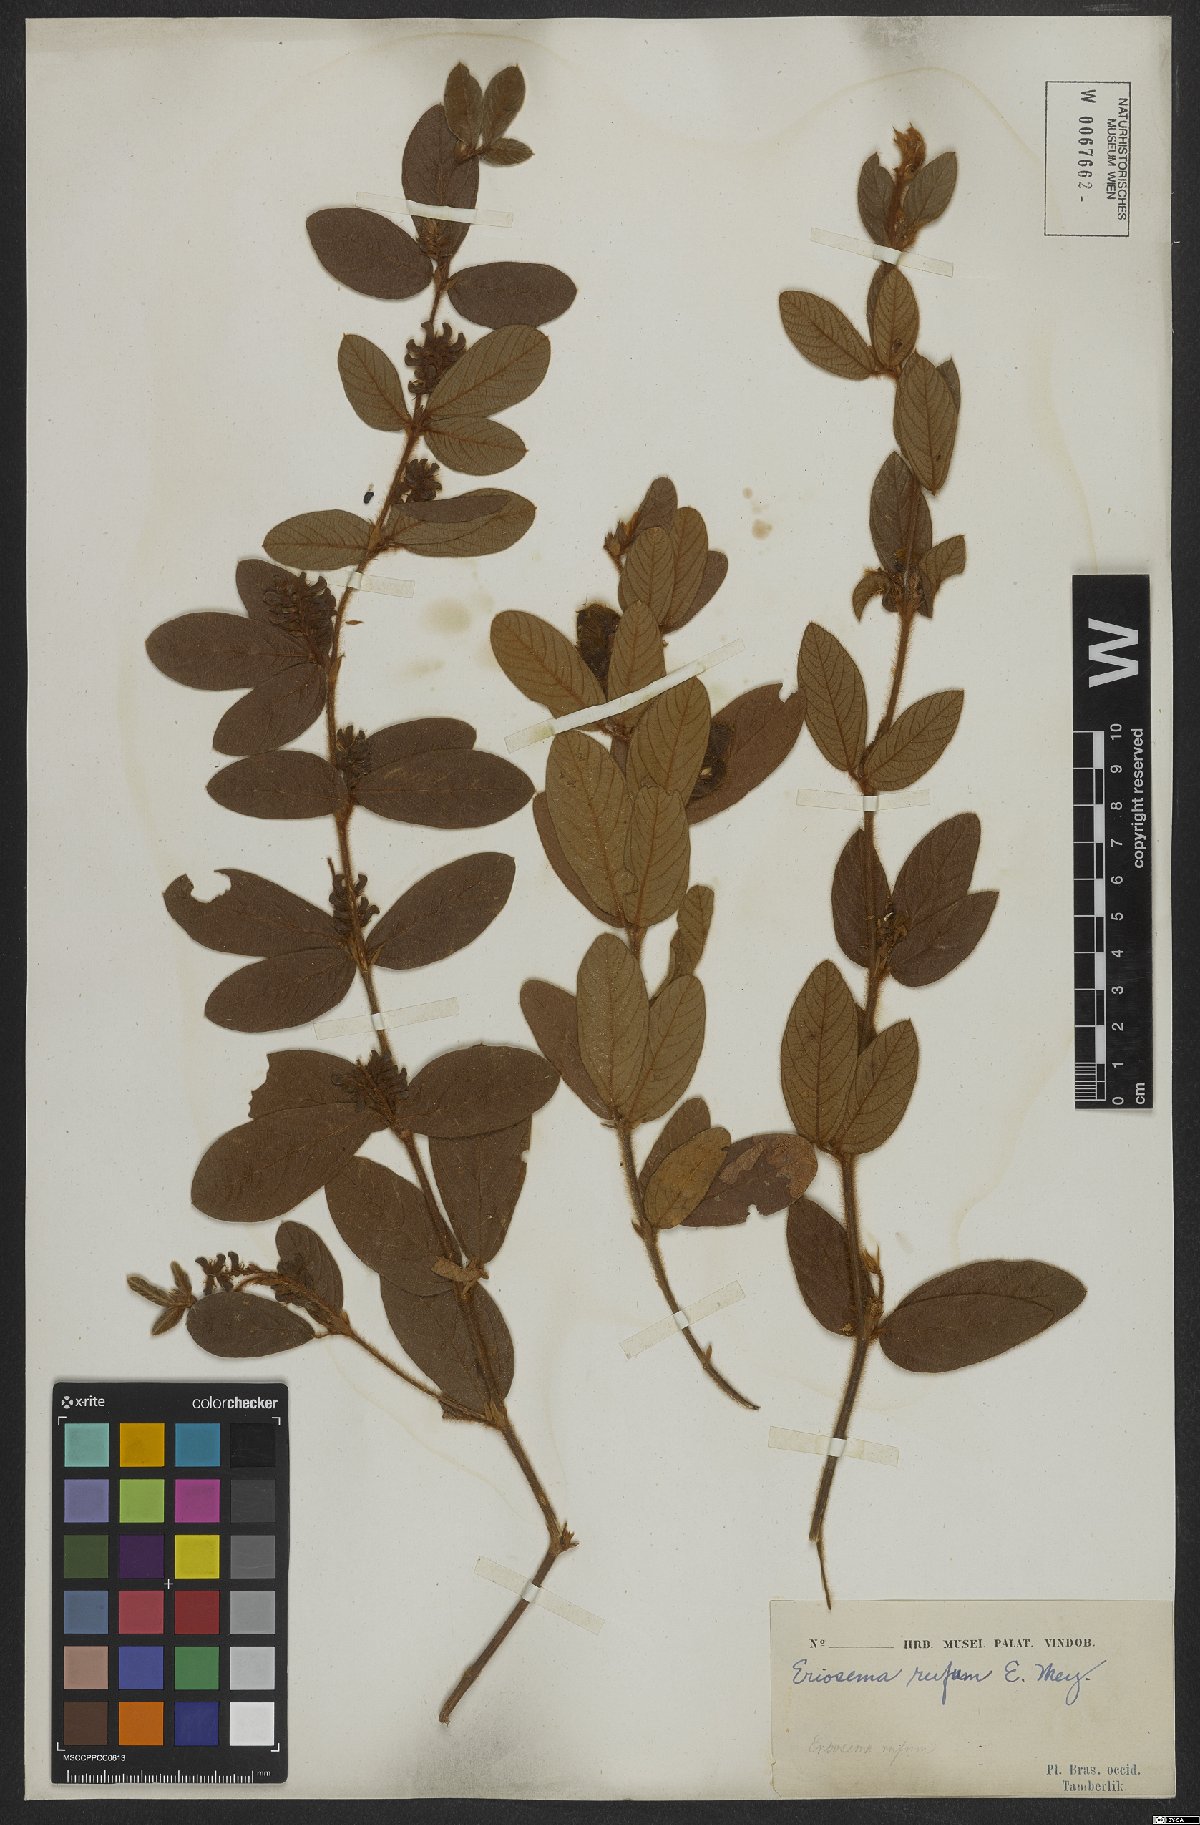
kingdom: Plantae
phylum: Tracheophyta
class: Magnoliopsida
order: Fabales
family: Fabaceae
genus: Eriosema
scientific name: Eriosema rufum
